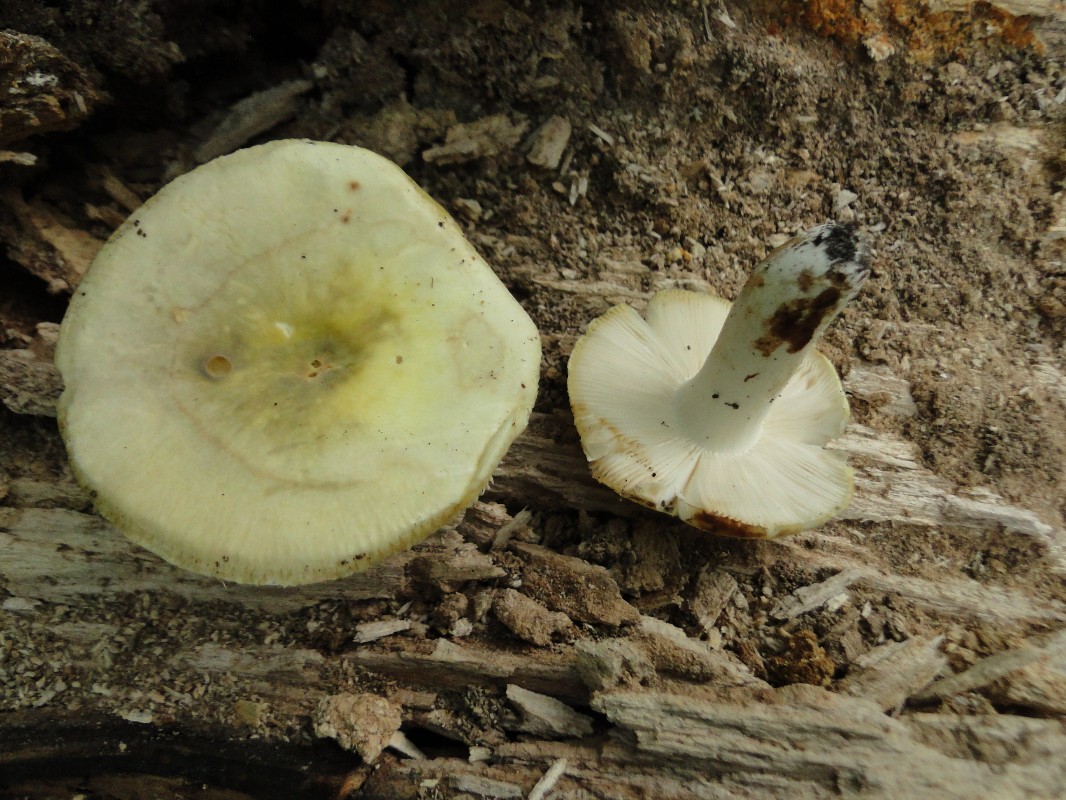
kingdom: Fungi
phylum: Basidiomycota
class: Agaricomycetes
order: Russulales
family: Russulaceae
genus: Russula
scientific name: Russula violeipes
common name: ferskengul skørhat
